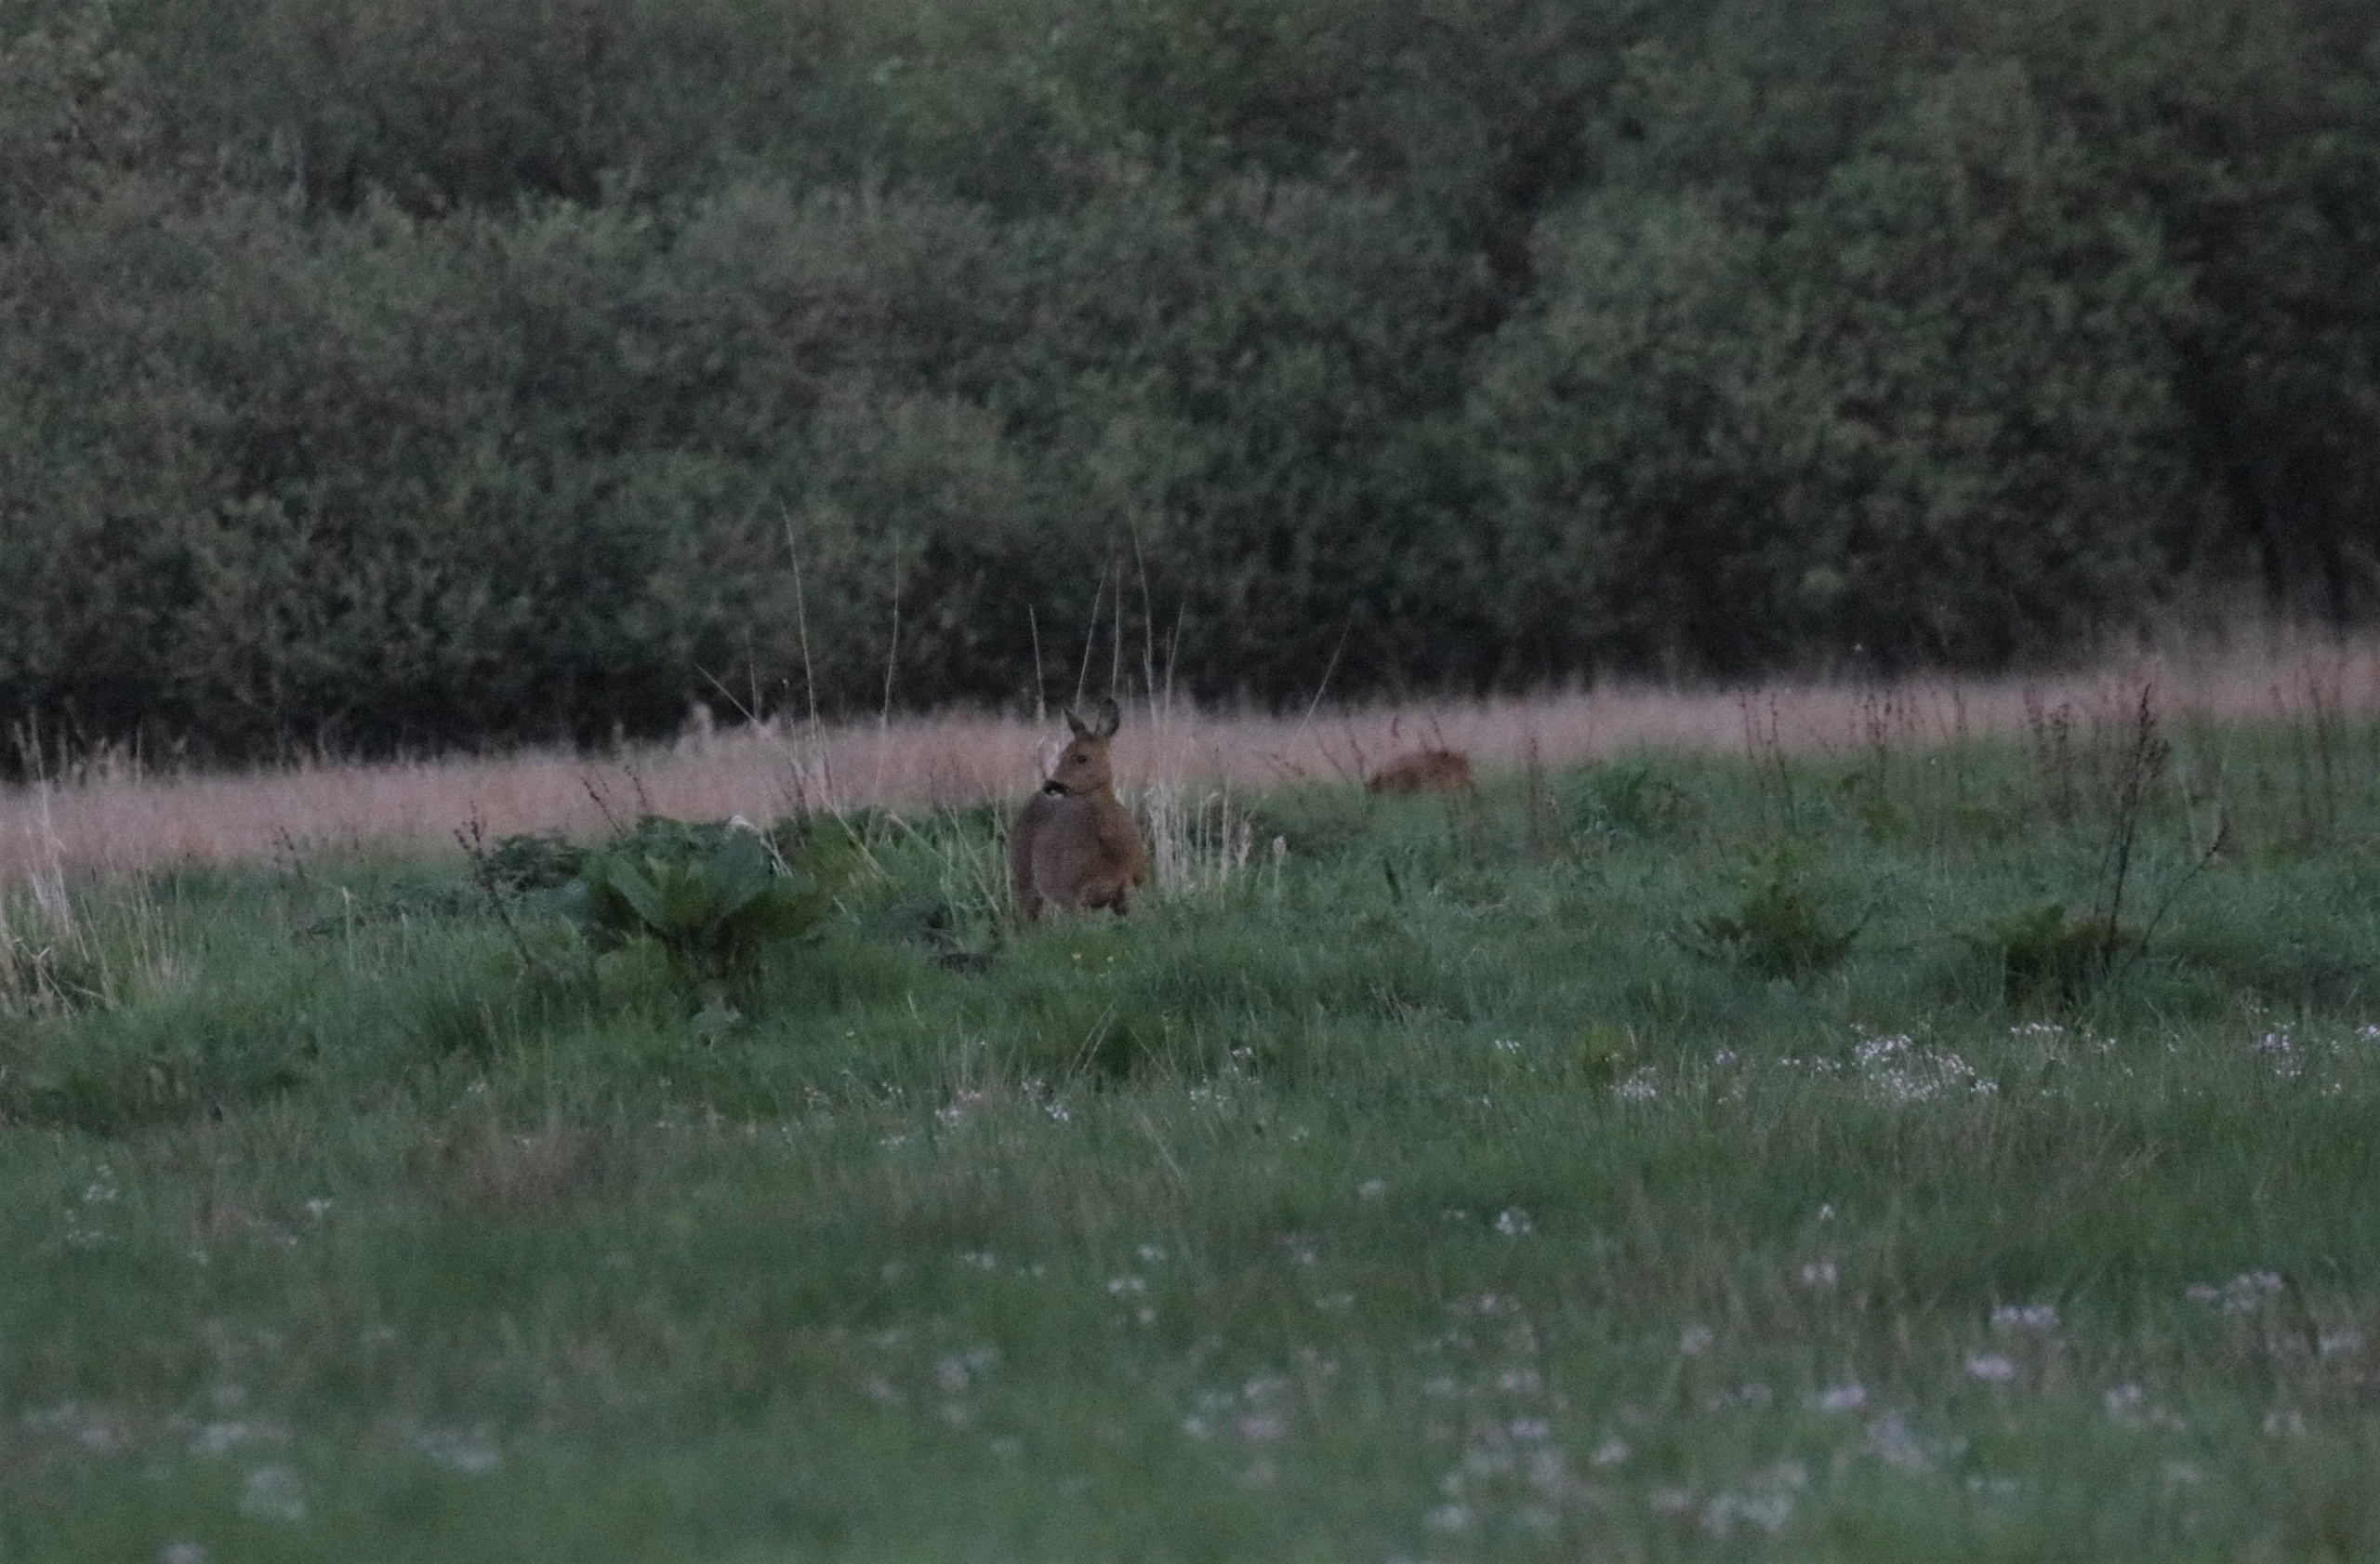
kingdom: Animalia
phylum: Chordata
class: Mammalia
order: Artiodactyla
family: Cervidae
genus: Capreolus
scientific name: Capreolus capreolus
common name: Rådyr
